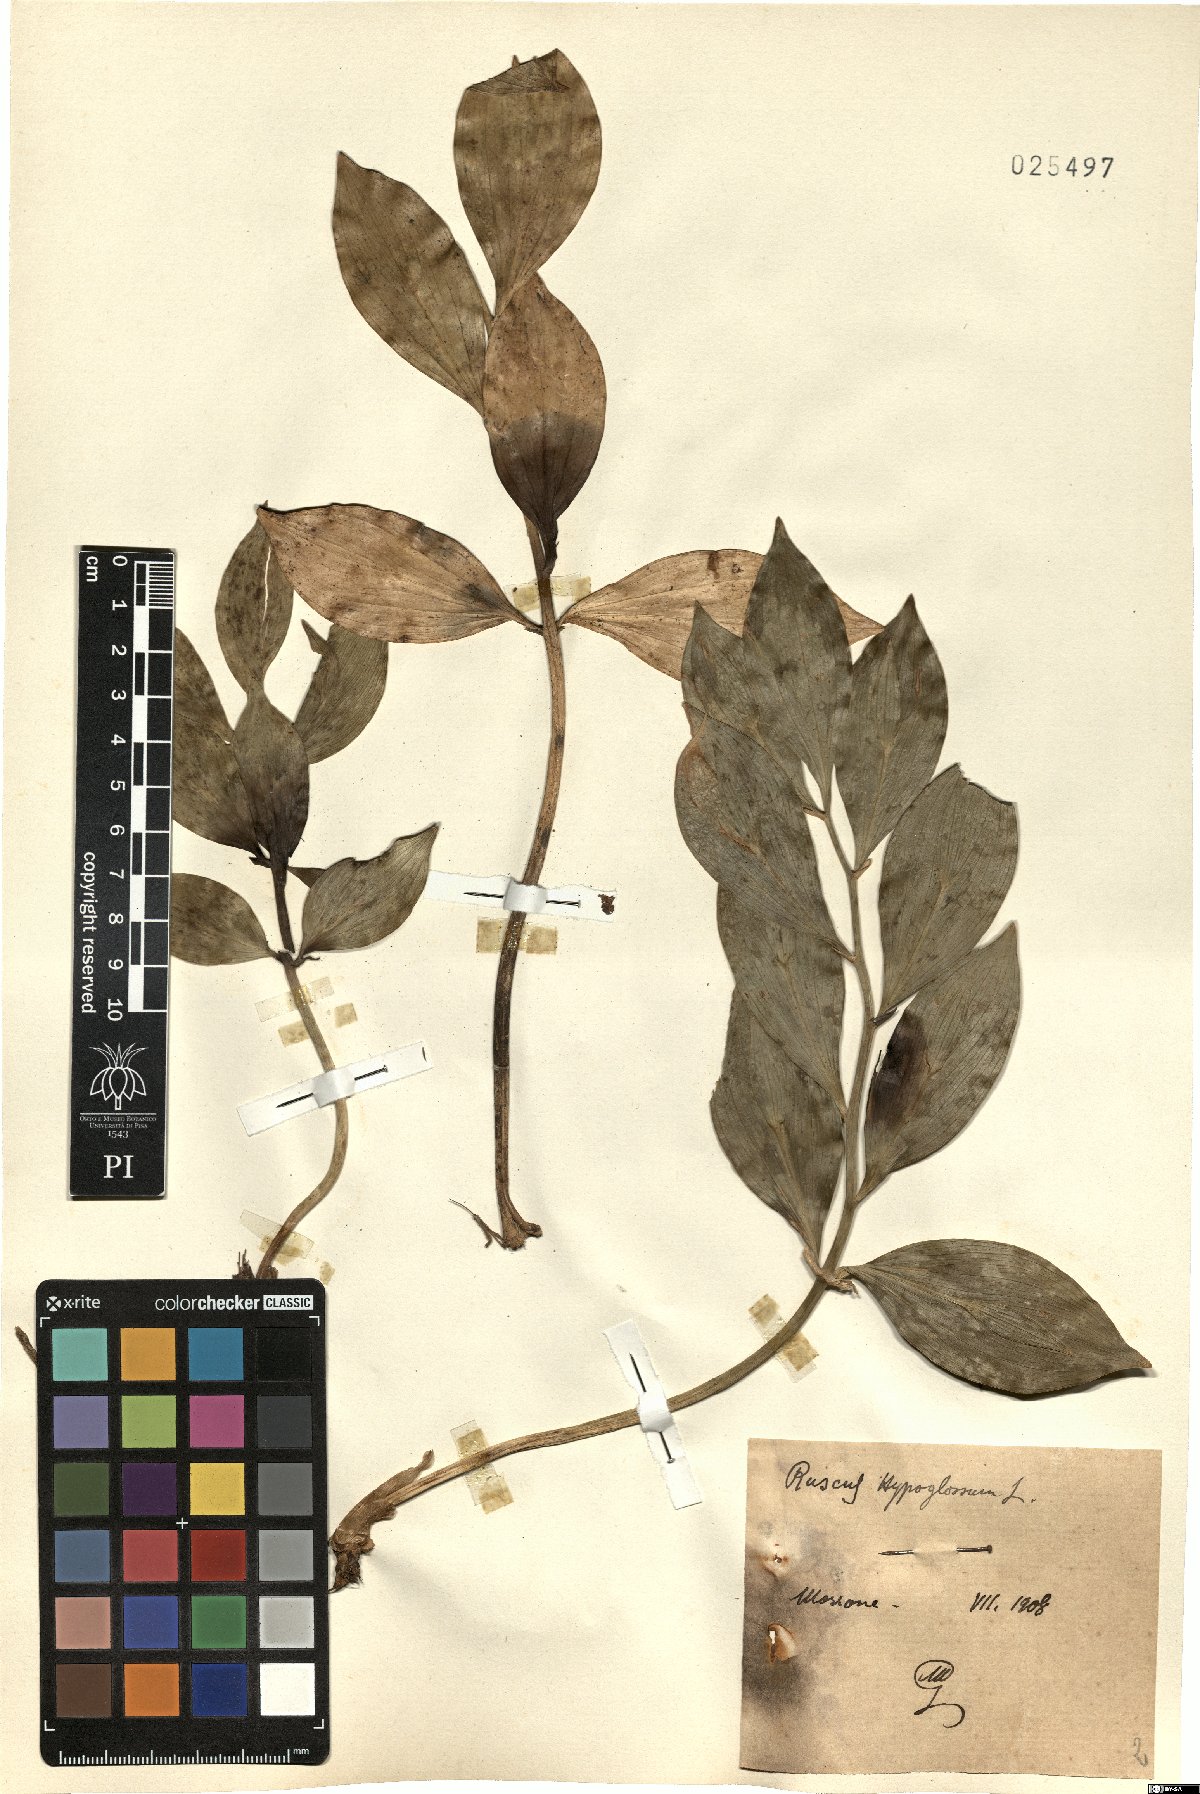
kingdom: Plantae
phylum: Tracheophyta
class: Liliopsida
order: Asparagales
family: Asparagaceae
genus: Ruscus
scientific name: Ruscus hypoglossum
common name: Spineless butcher's-broom
